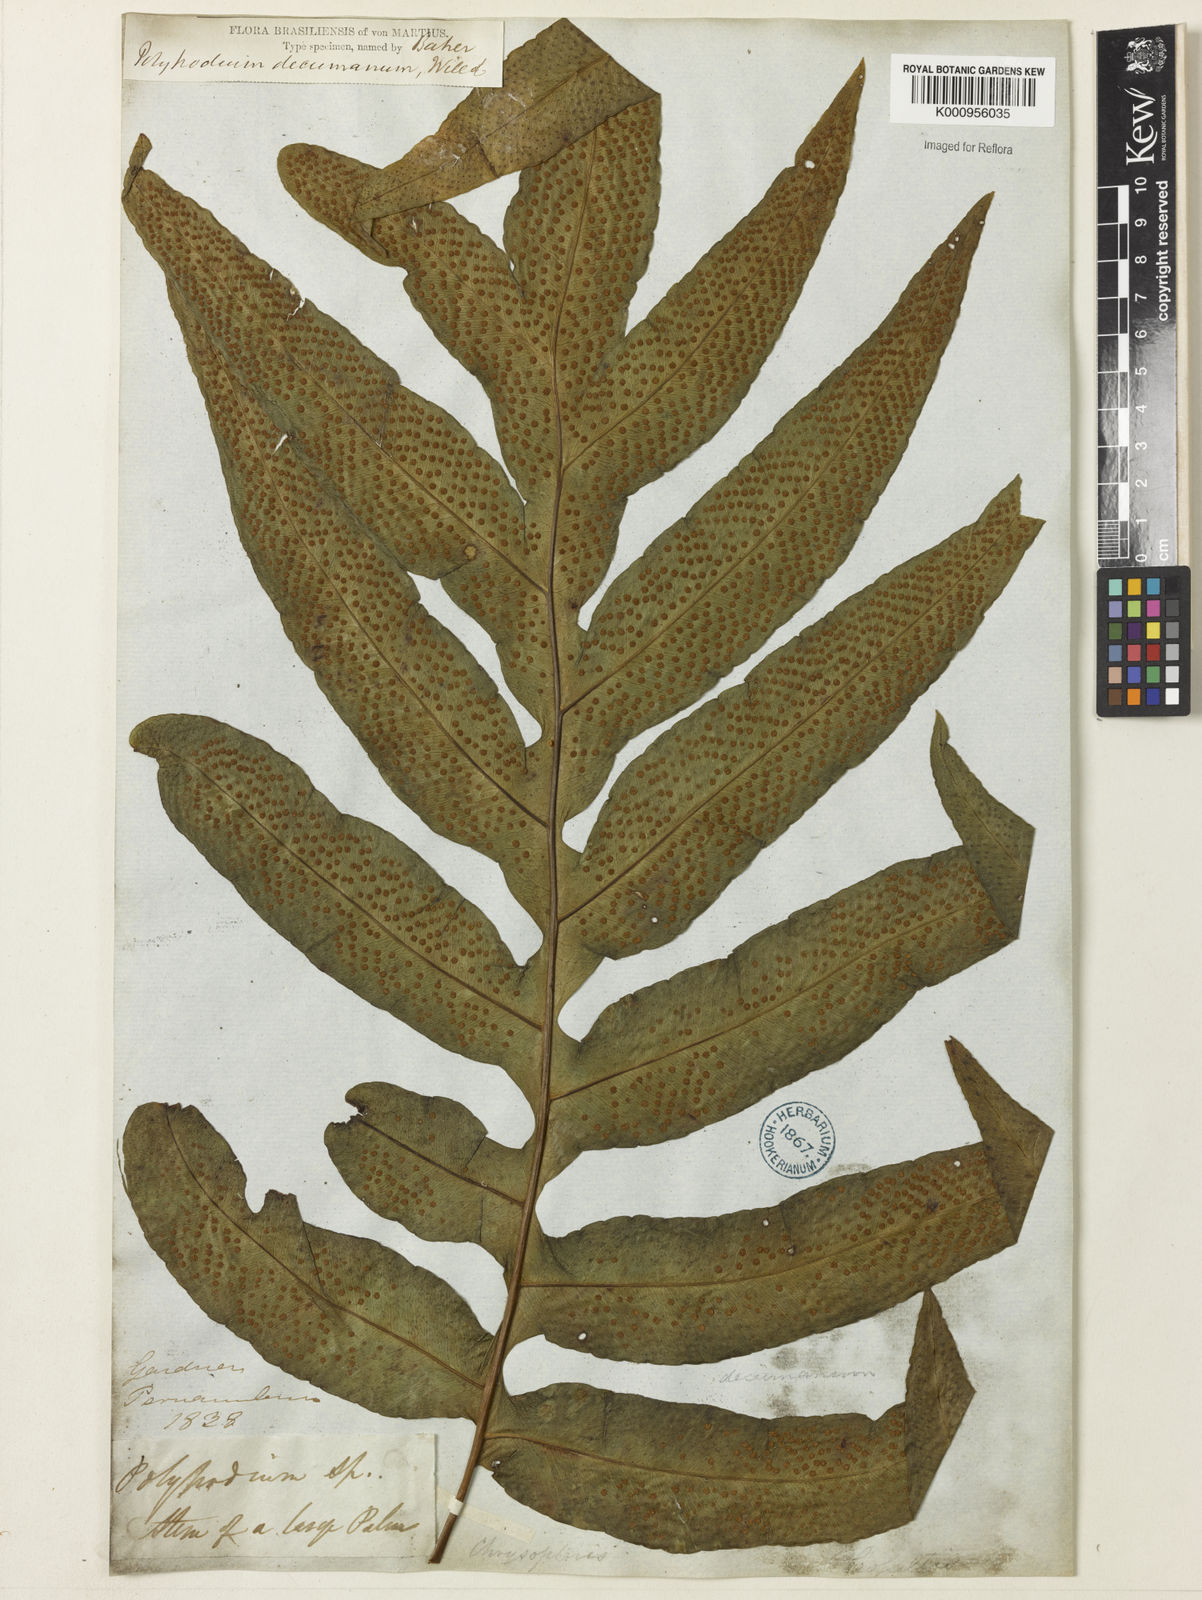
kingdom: Plantae
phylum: Tracheophyta
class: Polypodiopsida
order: Polypodiales
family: Polypodiaceae
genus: Phlebodium
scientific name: Phlebodium decumanum
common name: Golden polypod
